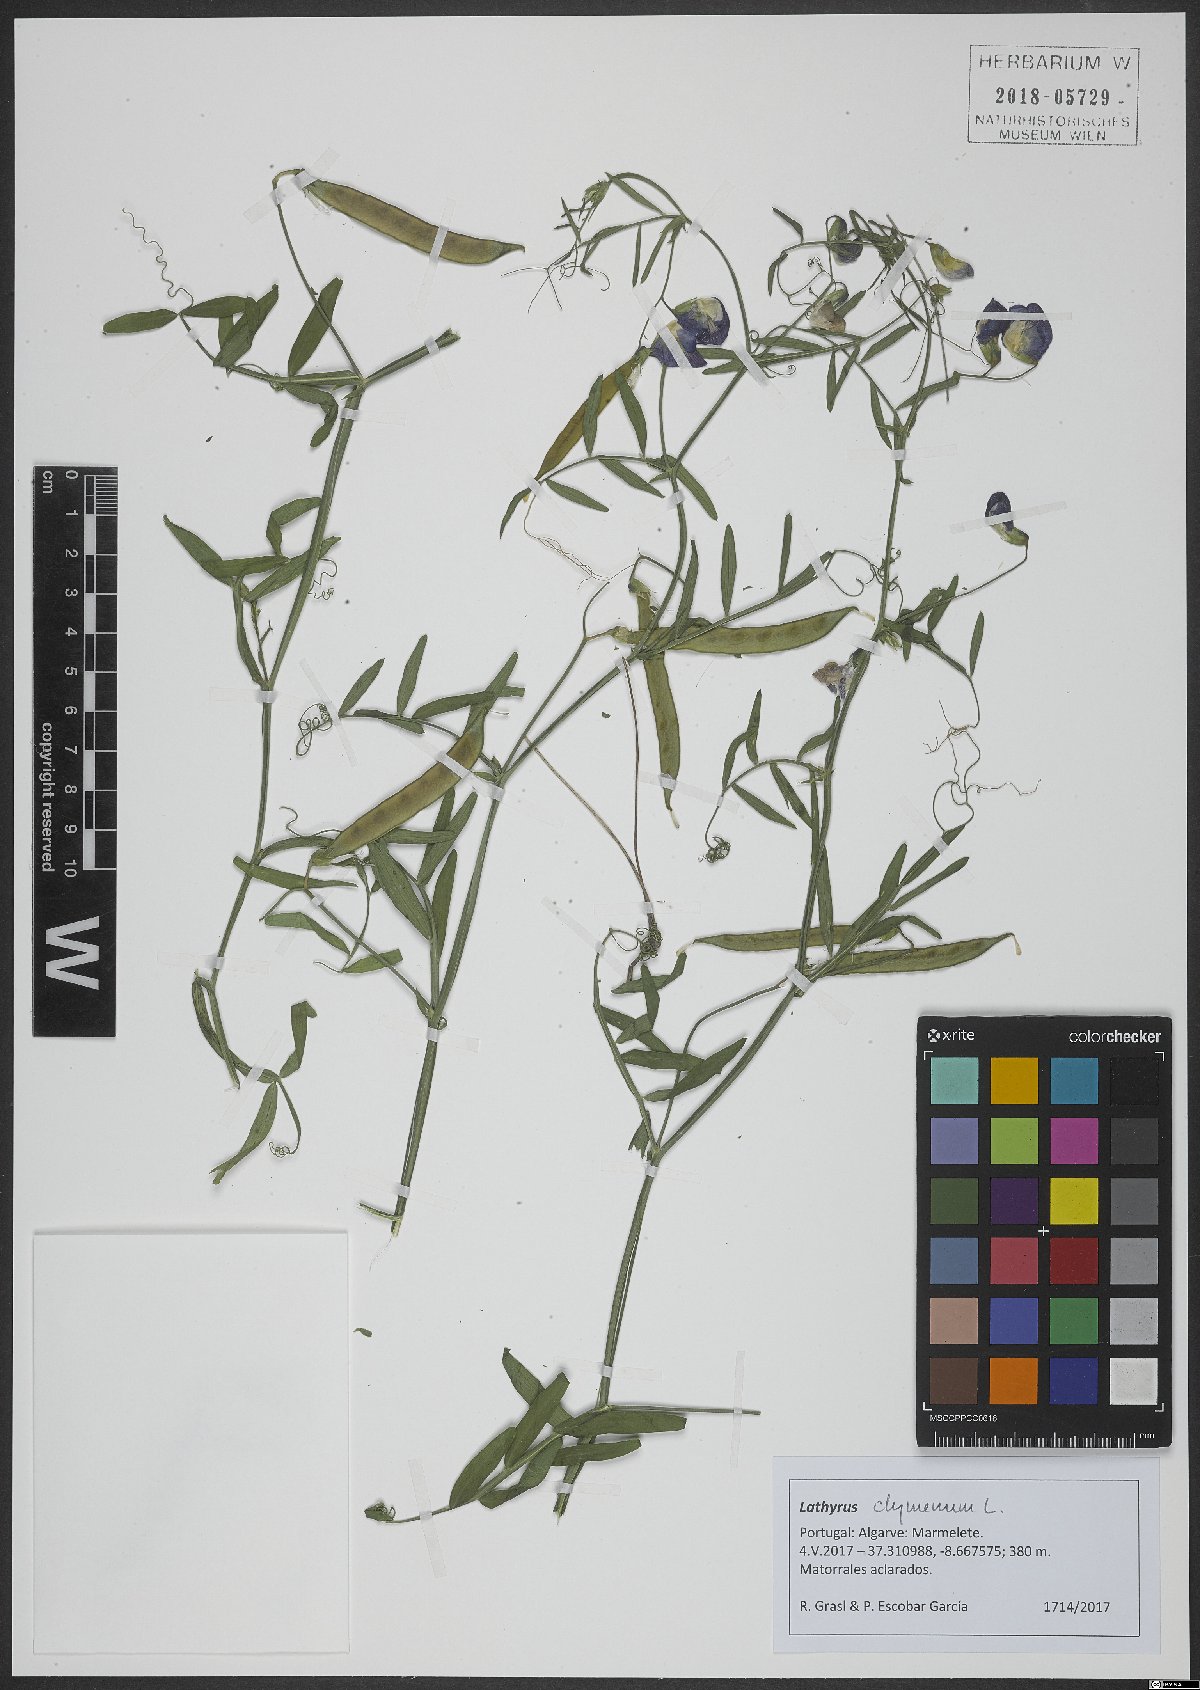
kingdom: Plantae
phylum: Tracheophyta
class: Magnoliopsida
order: Fabales
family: Fabaceae
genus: Lathyrus
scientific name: Lathyrus clymenum
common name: Spanish vetchling
